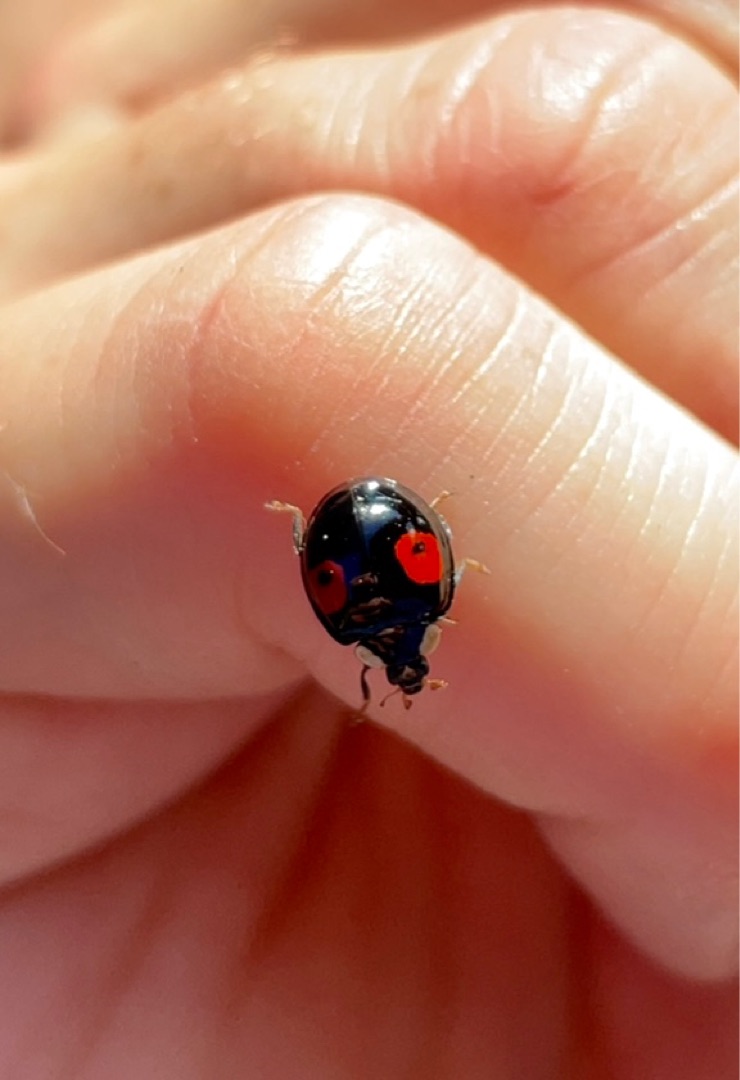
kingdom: Animalia
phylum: Arthropoda
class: Insecta
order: Coleoptera
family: Coccinellidae
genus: Harmonia
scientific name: Harmonia axyridis
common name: Harlekinmariehøne
